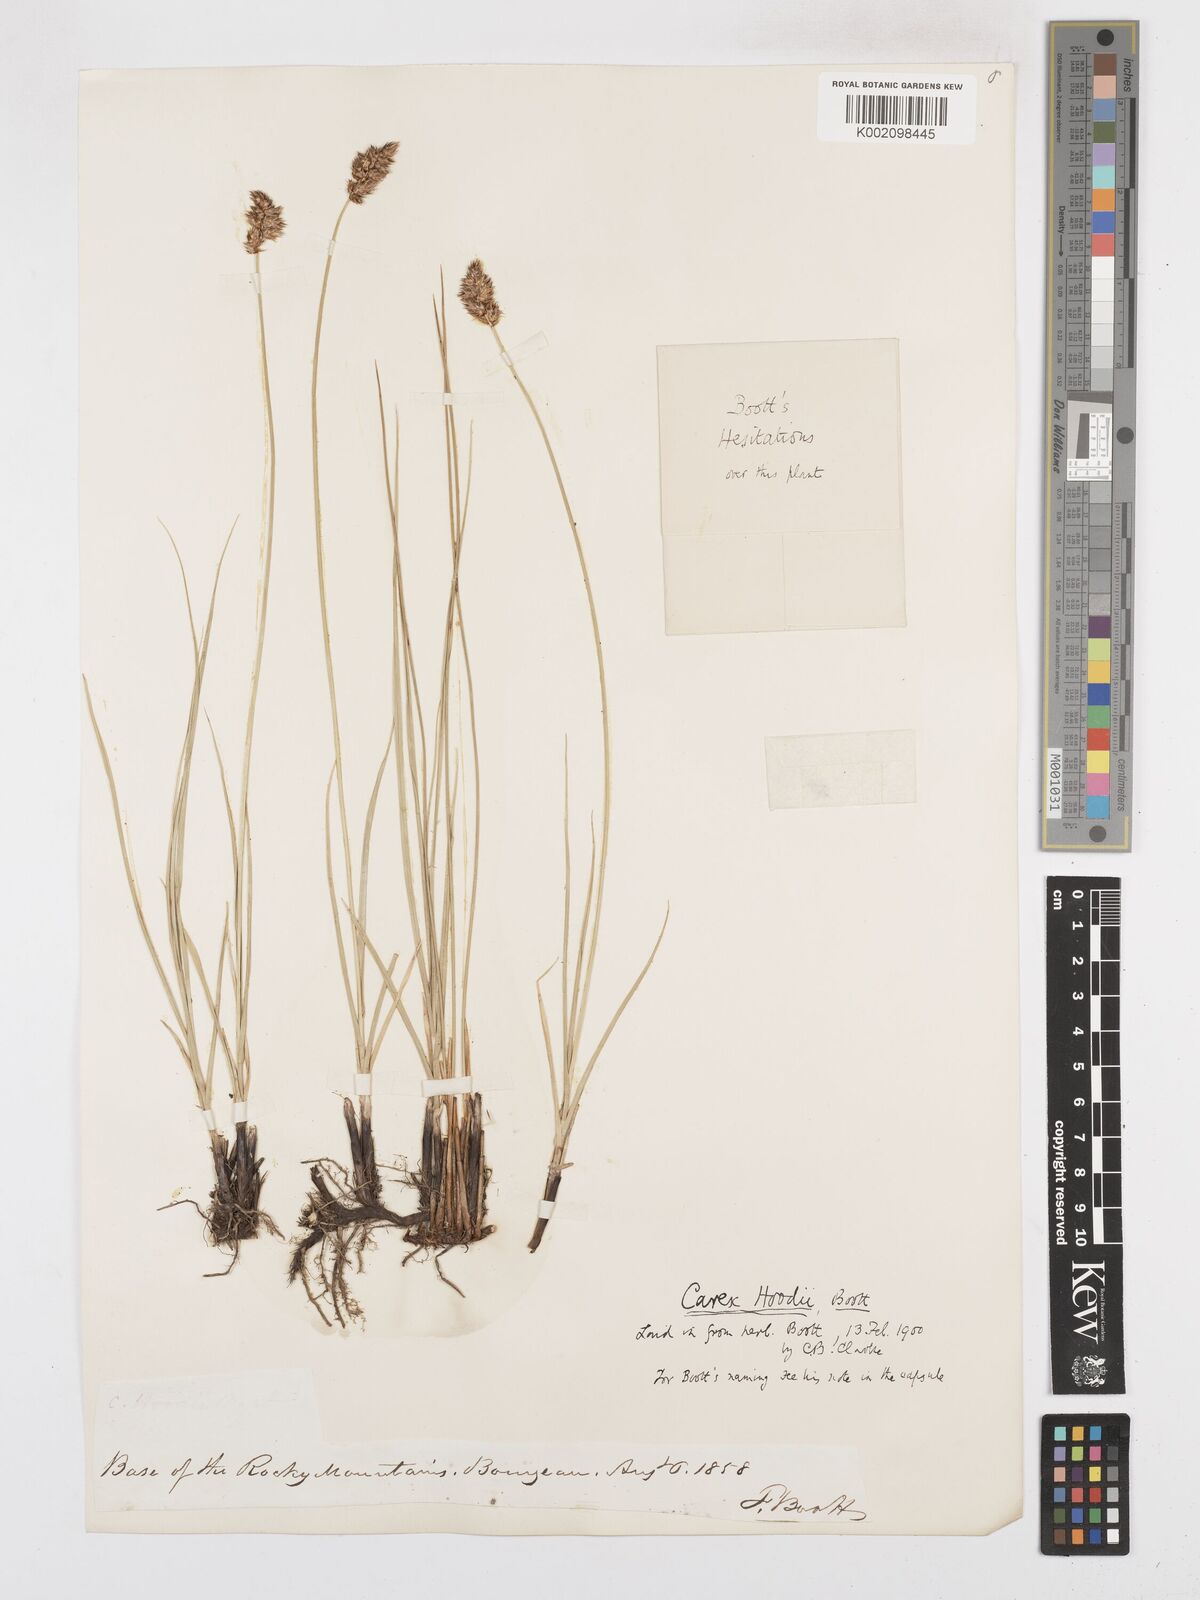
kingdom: Plantae
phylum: Tracheophyta
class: Liliopsida
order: Poales
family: Cyperaceae
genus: Carex
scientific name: Carex hoodii
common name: Hood's sedge
